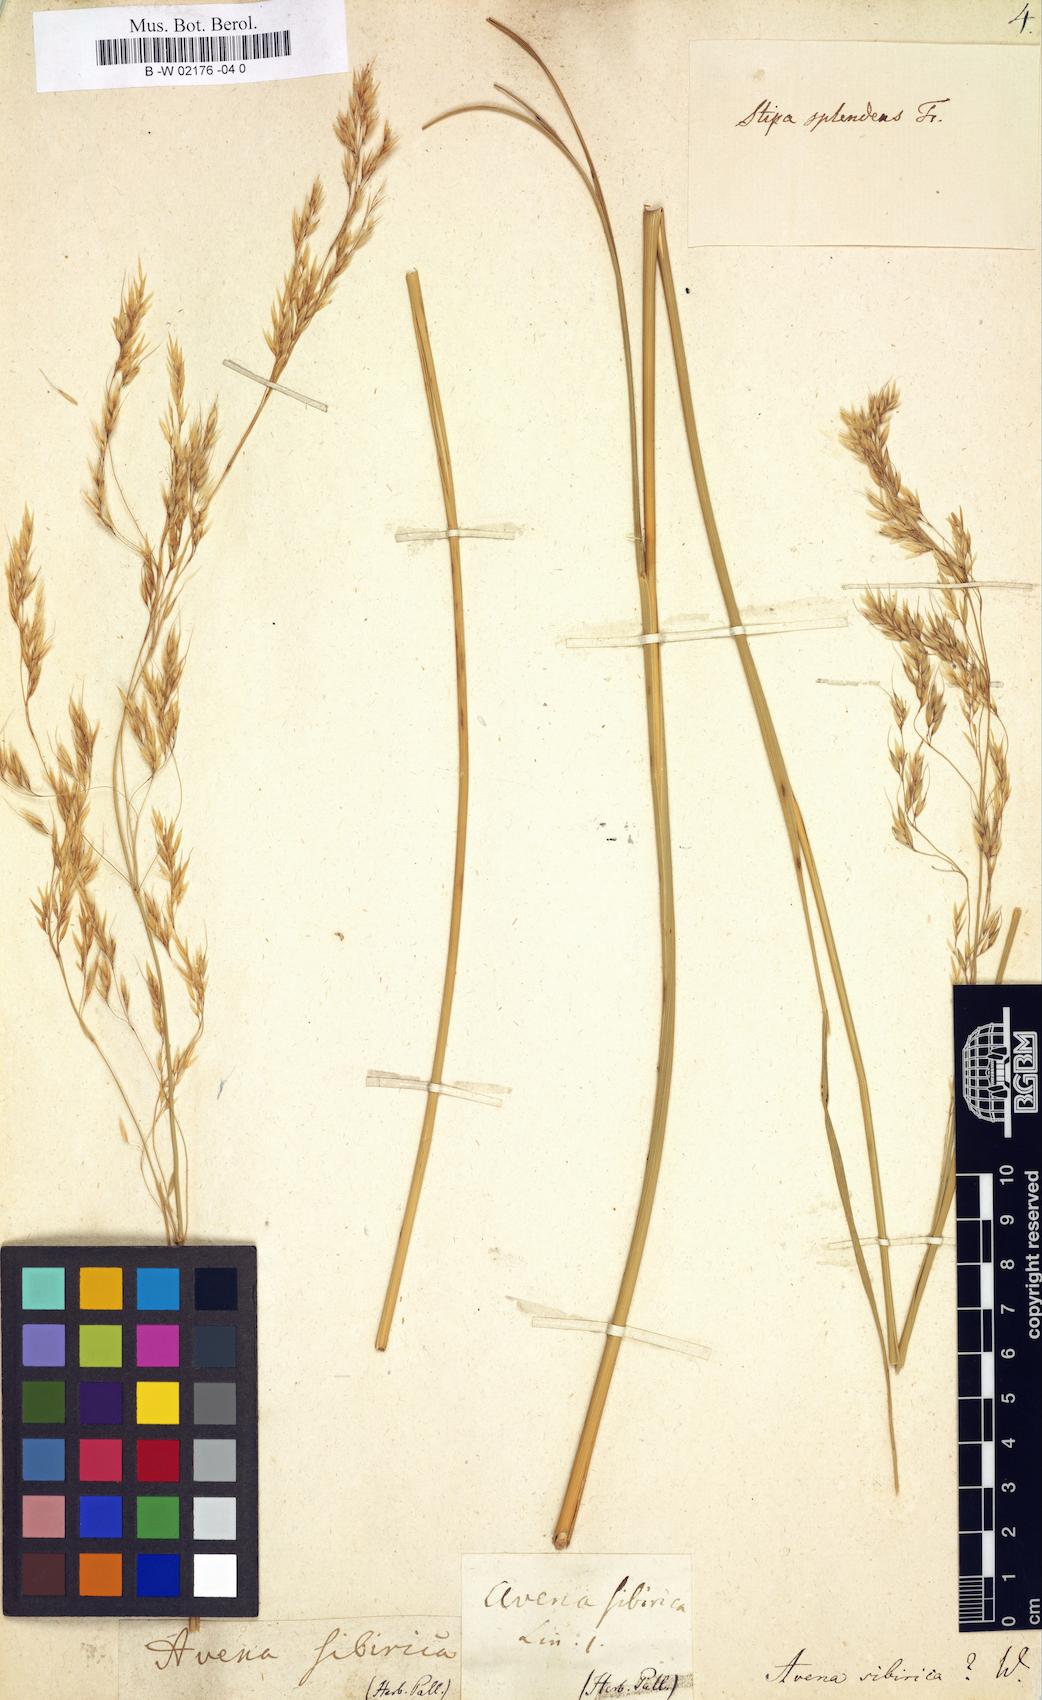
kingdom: Plantae
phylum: Tracheophyta
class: Liliopsida
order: Poales
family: Poaceae
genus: Achnatherum
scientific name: Achnatherum sibiricum
